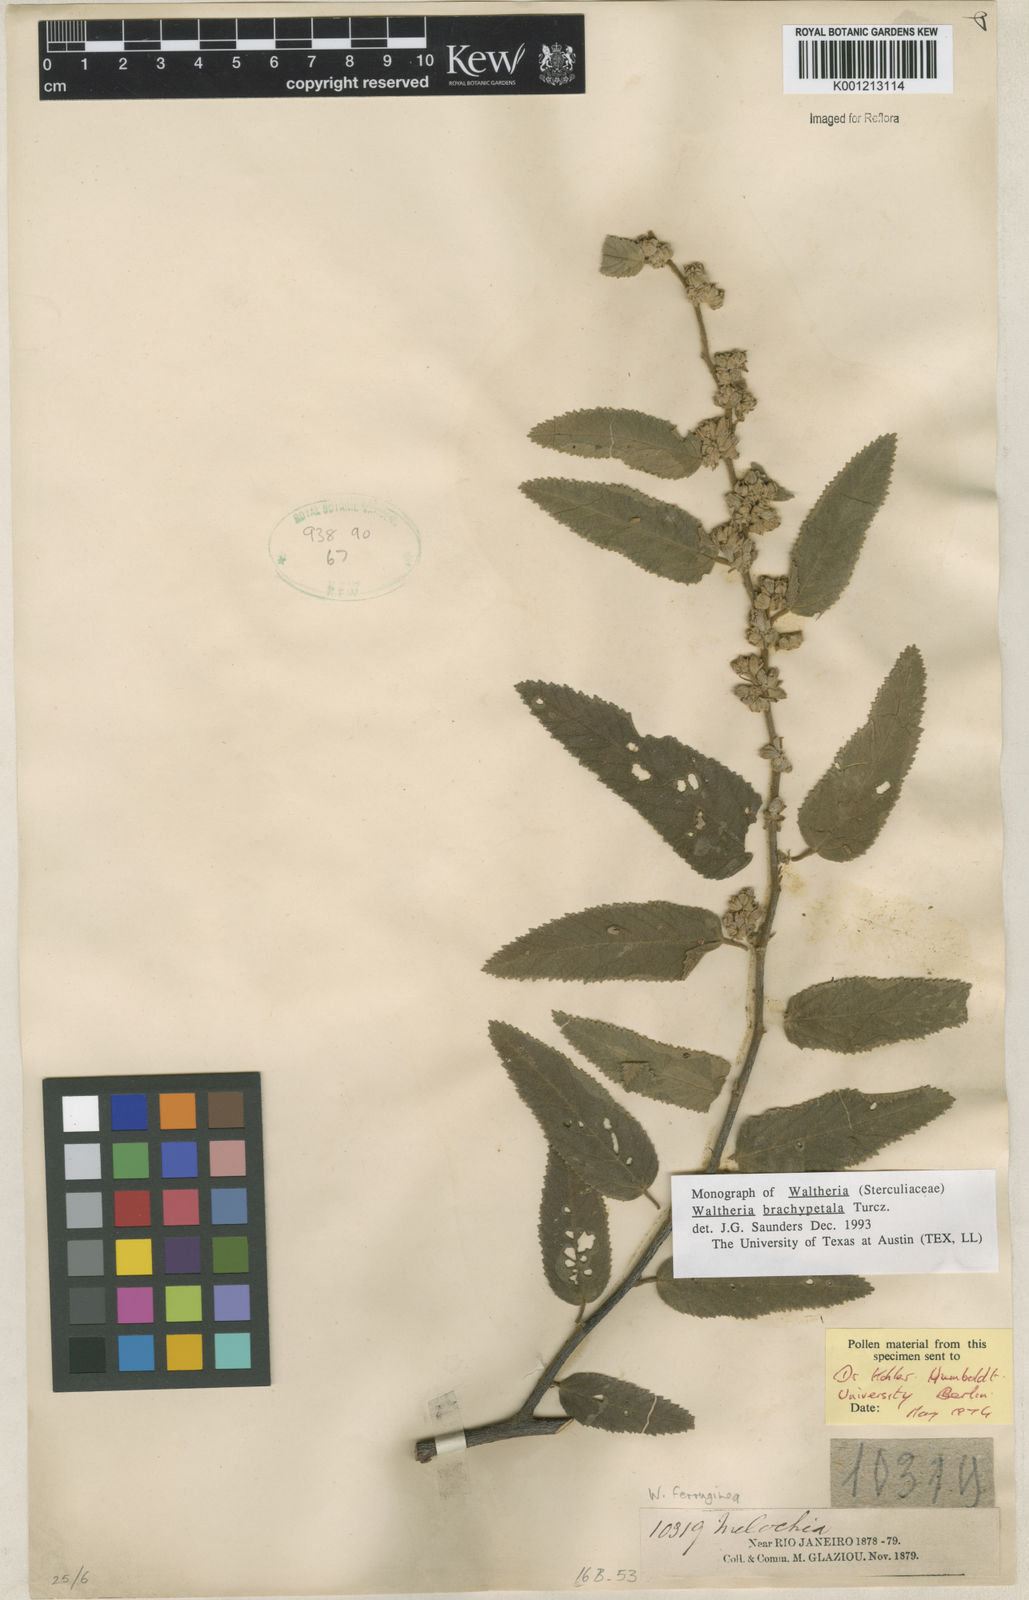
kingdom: Plantae
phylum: Tracheophyta
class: Magnoliopsida
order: Malvales
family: Malvaceae
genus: Waltheria
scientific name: Waltheria ferruginea
